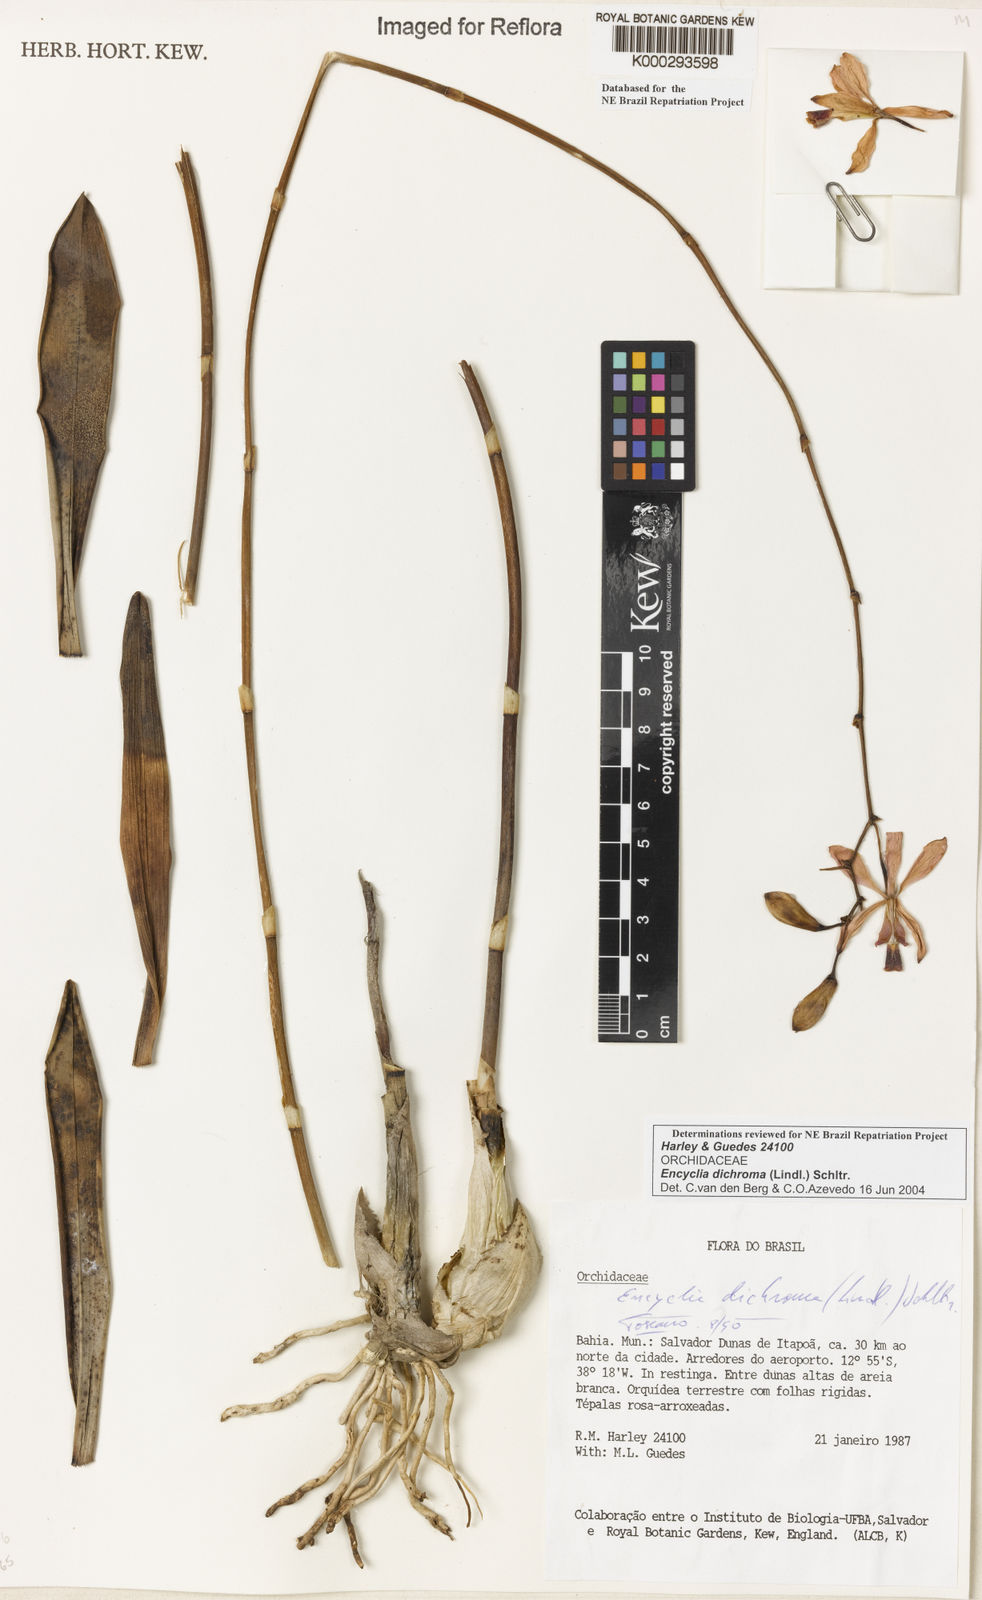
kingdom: Plantae
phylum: Tracheophyta
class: Liliopsida
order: Asparagales
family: Orchidaceae
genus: Encyclia
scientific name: Encyclia dichroma
